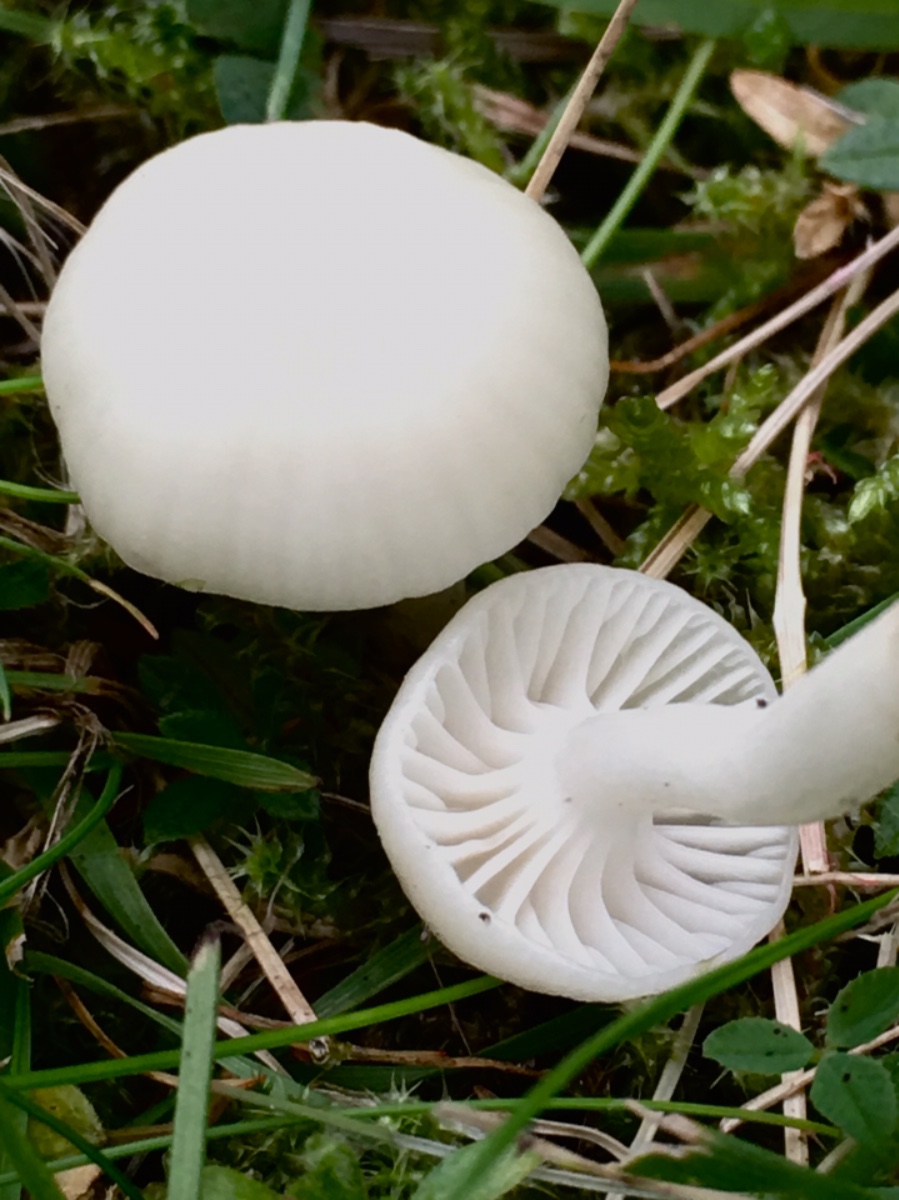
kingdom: Fungi
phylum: Basidiomycota
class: Agaricomycetes
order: Agaricales
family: Hygrophoraceae
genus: Cuphophyllus
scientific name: Cuphophyllus virgineus
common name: snehvid vokshat
